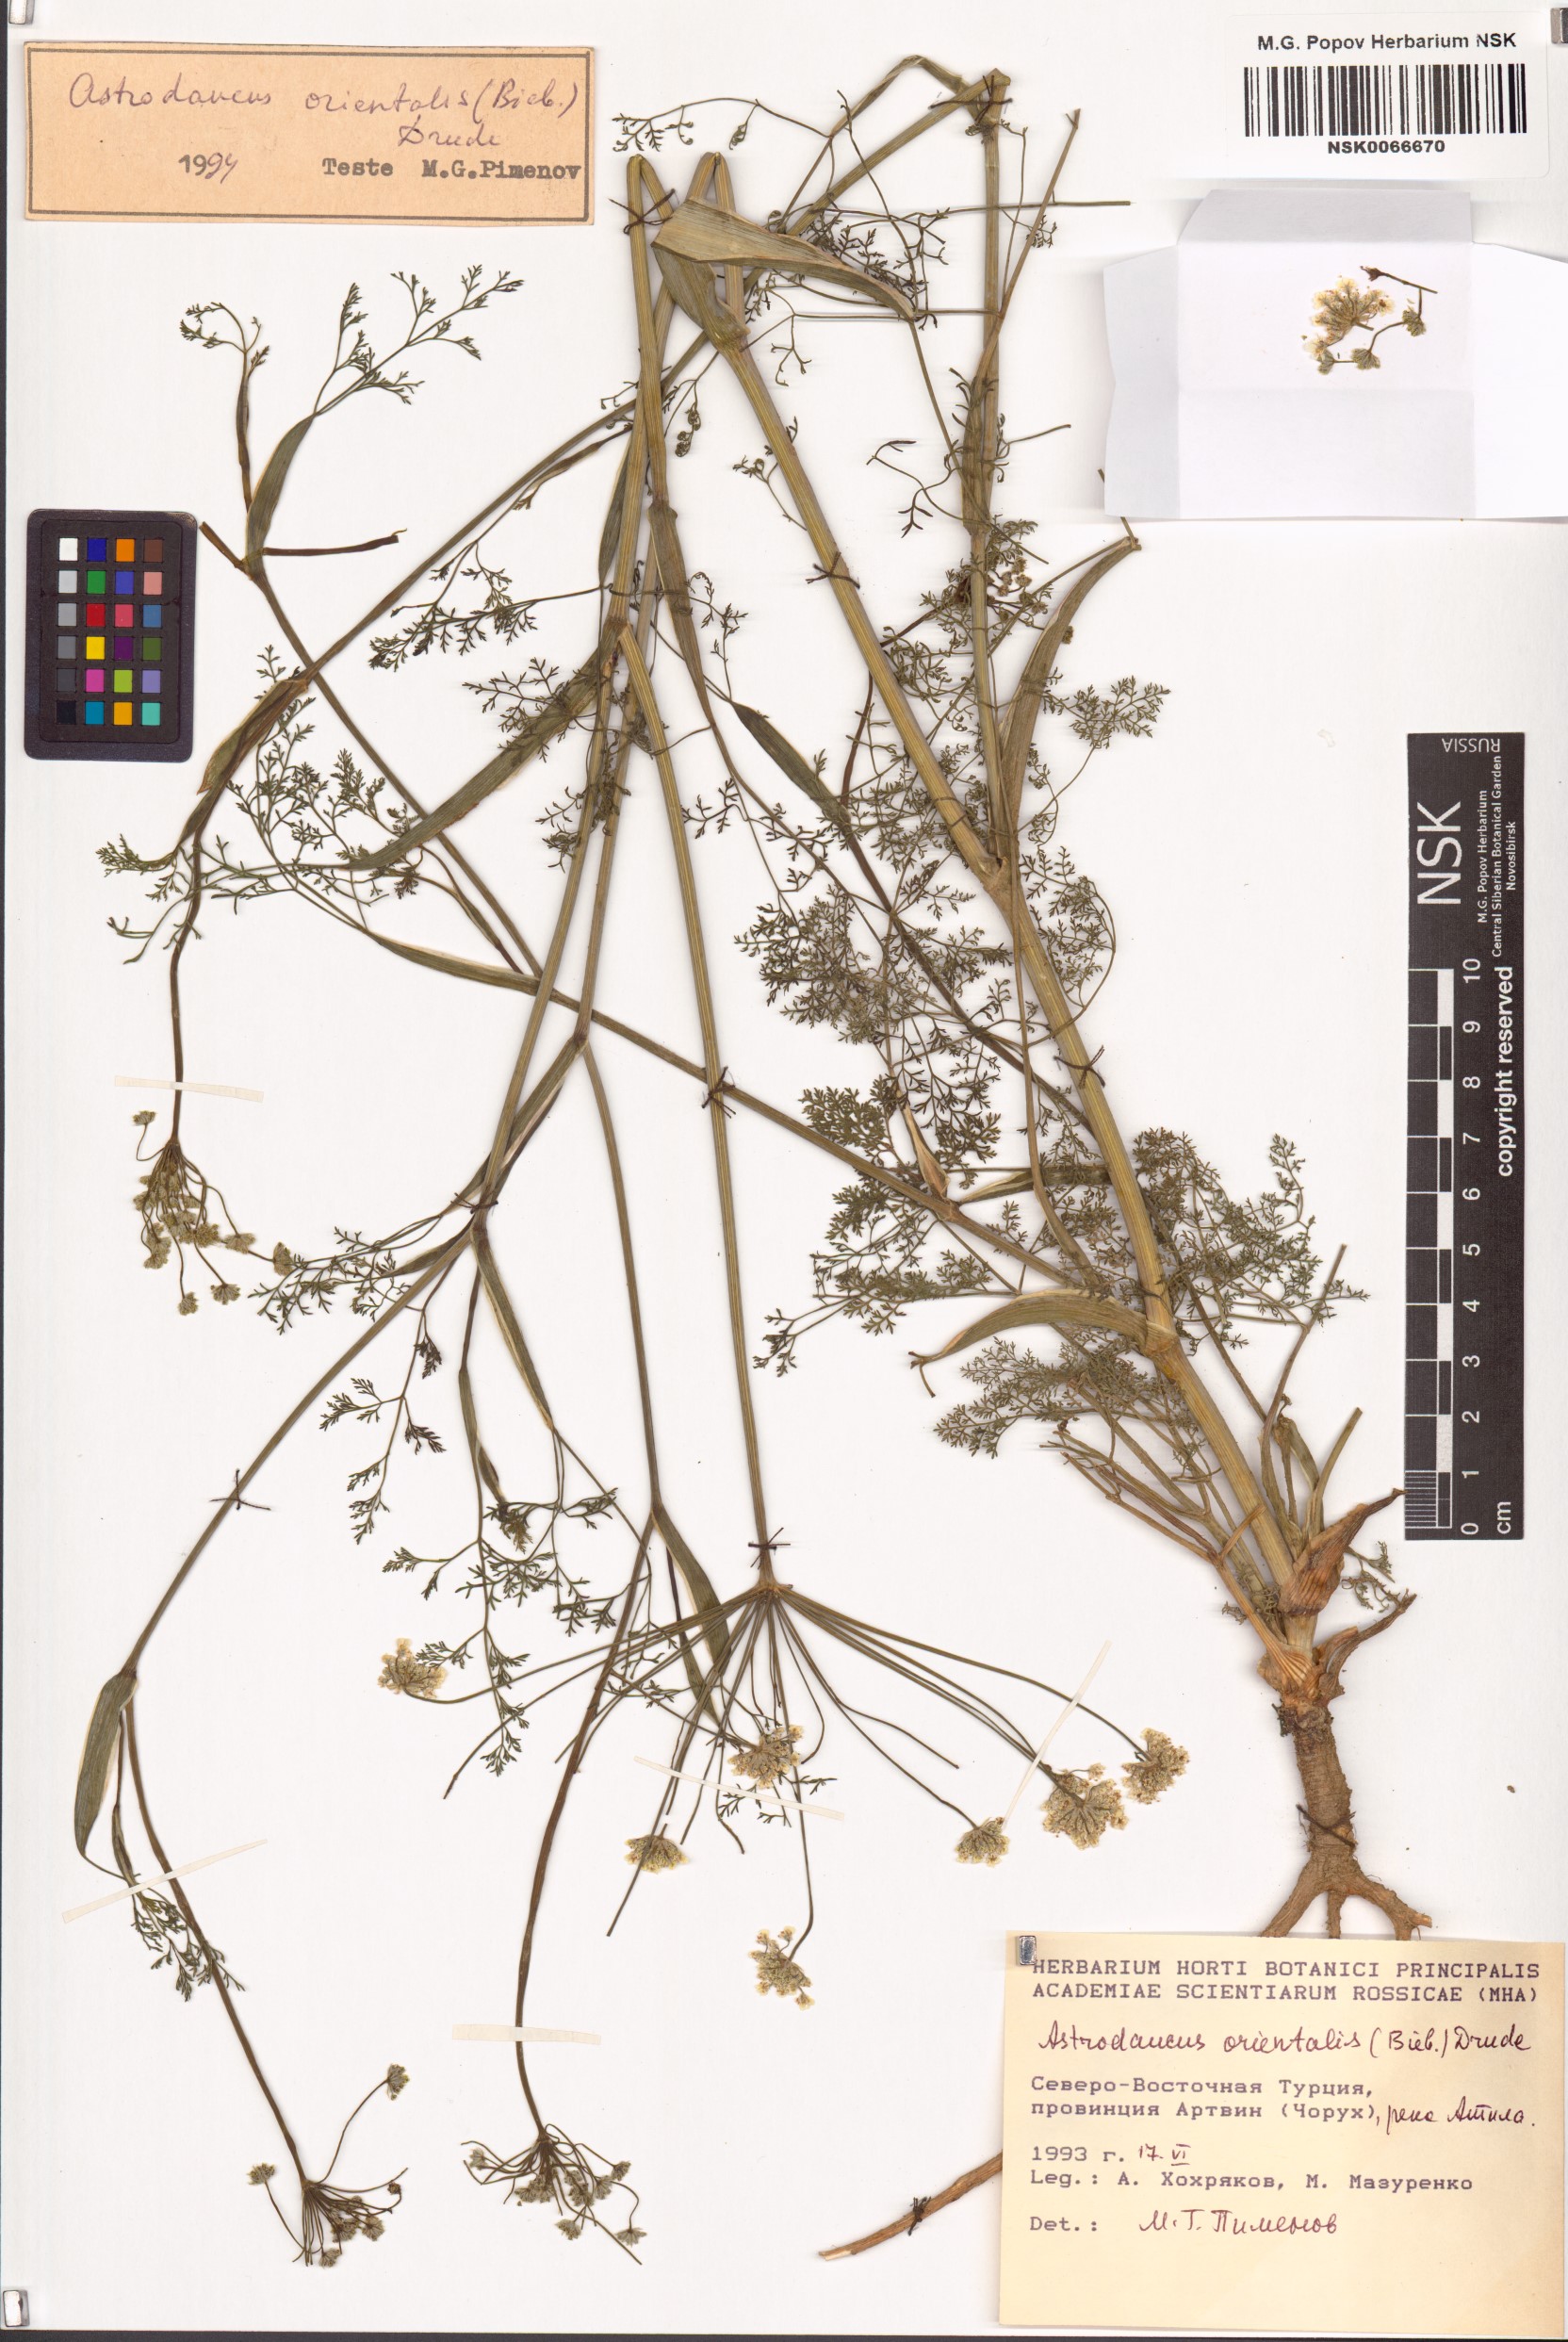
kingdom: Plantae
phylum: Tracheophyta
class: Magnoliopsida
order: Apiales
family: Apiaceae
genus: Astrodaucus
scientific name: Astrodaucus orientalis
